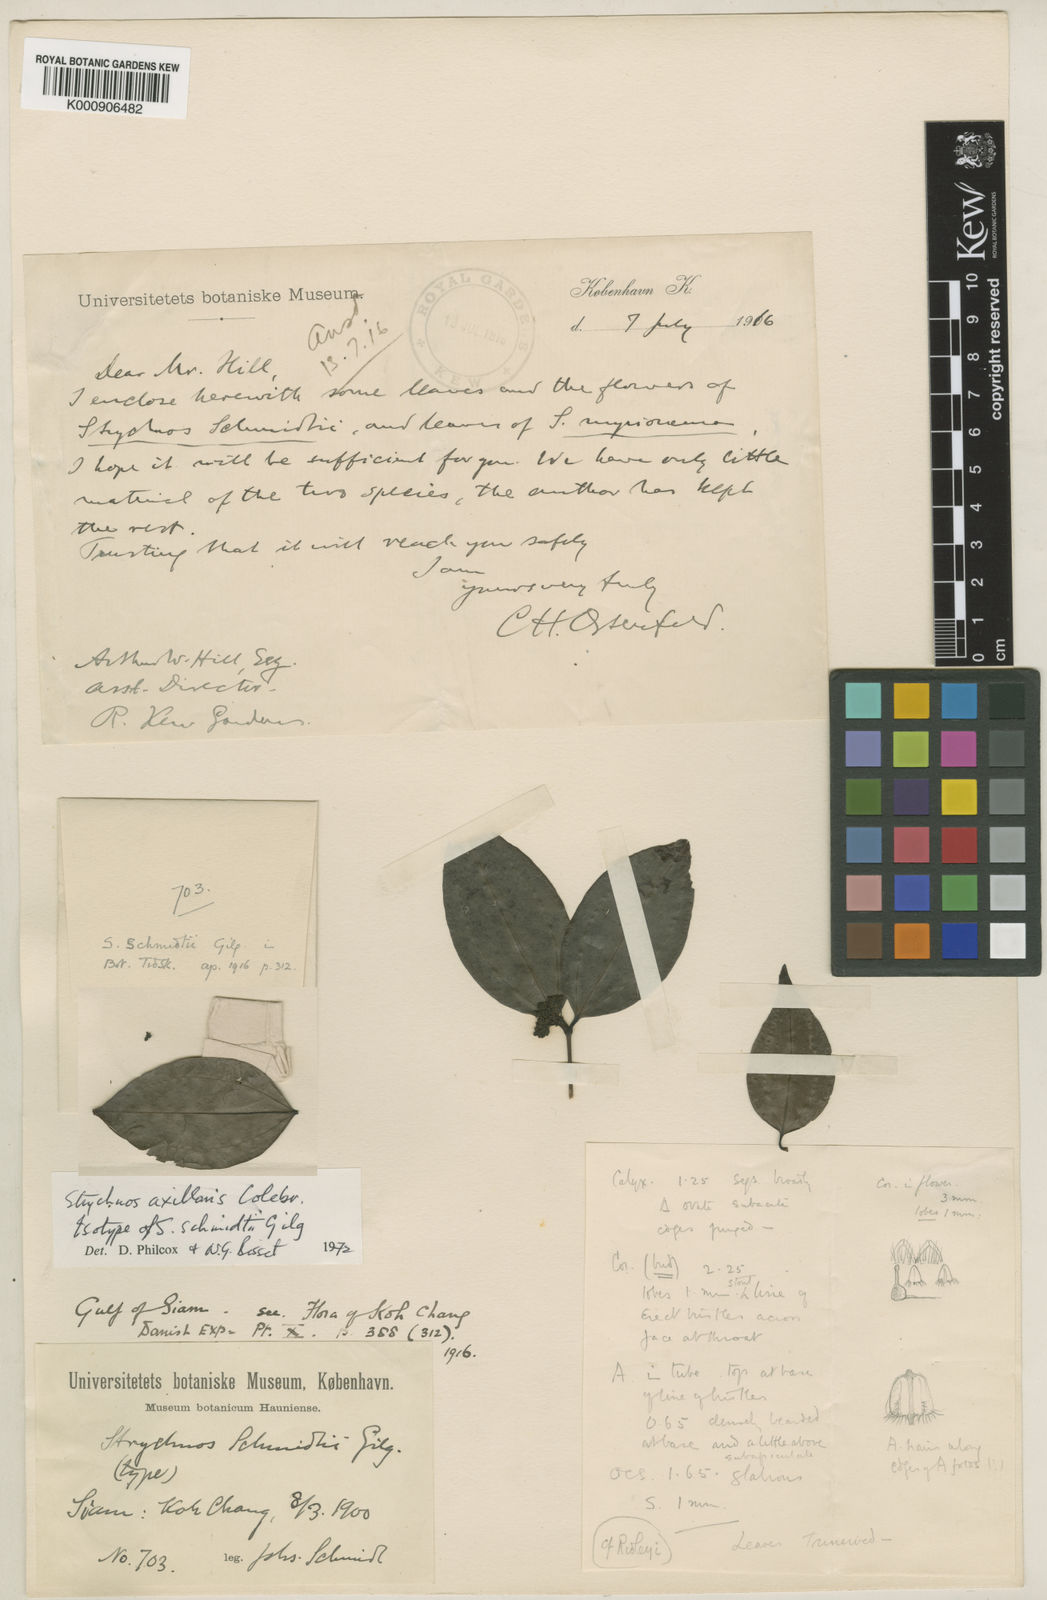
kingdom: Plantae
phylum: Tracheophyta
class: Magnoliopsida
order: Gentianales
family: Loganiaceae
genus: Strychnos
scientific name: Strychnos axillaris
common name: Strychninebush
